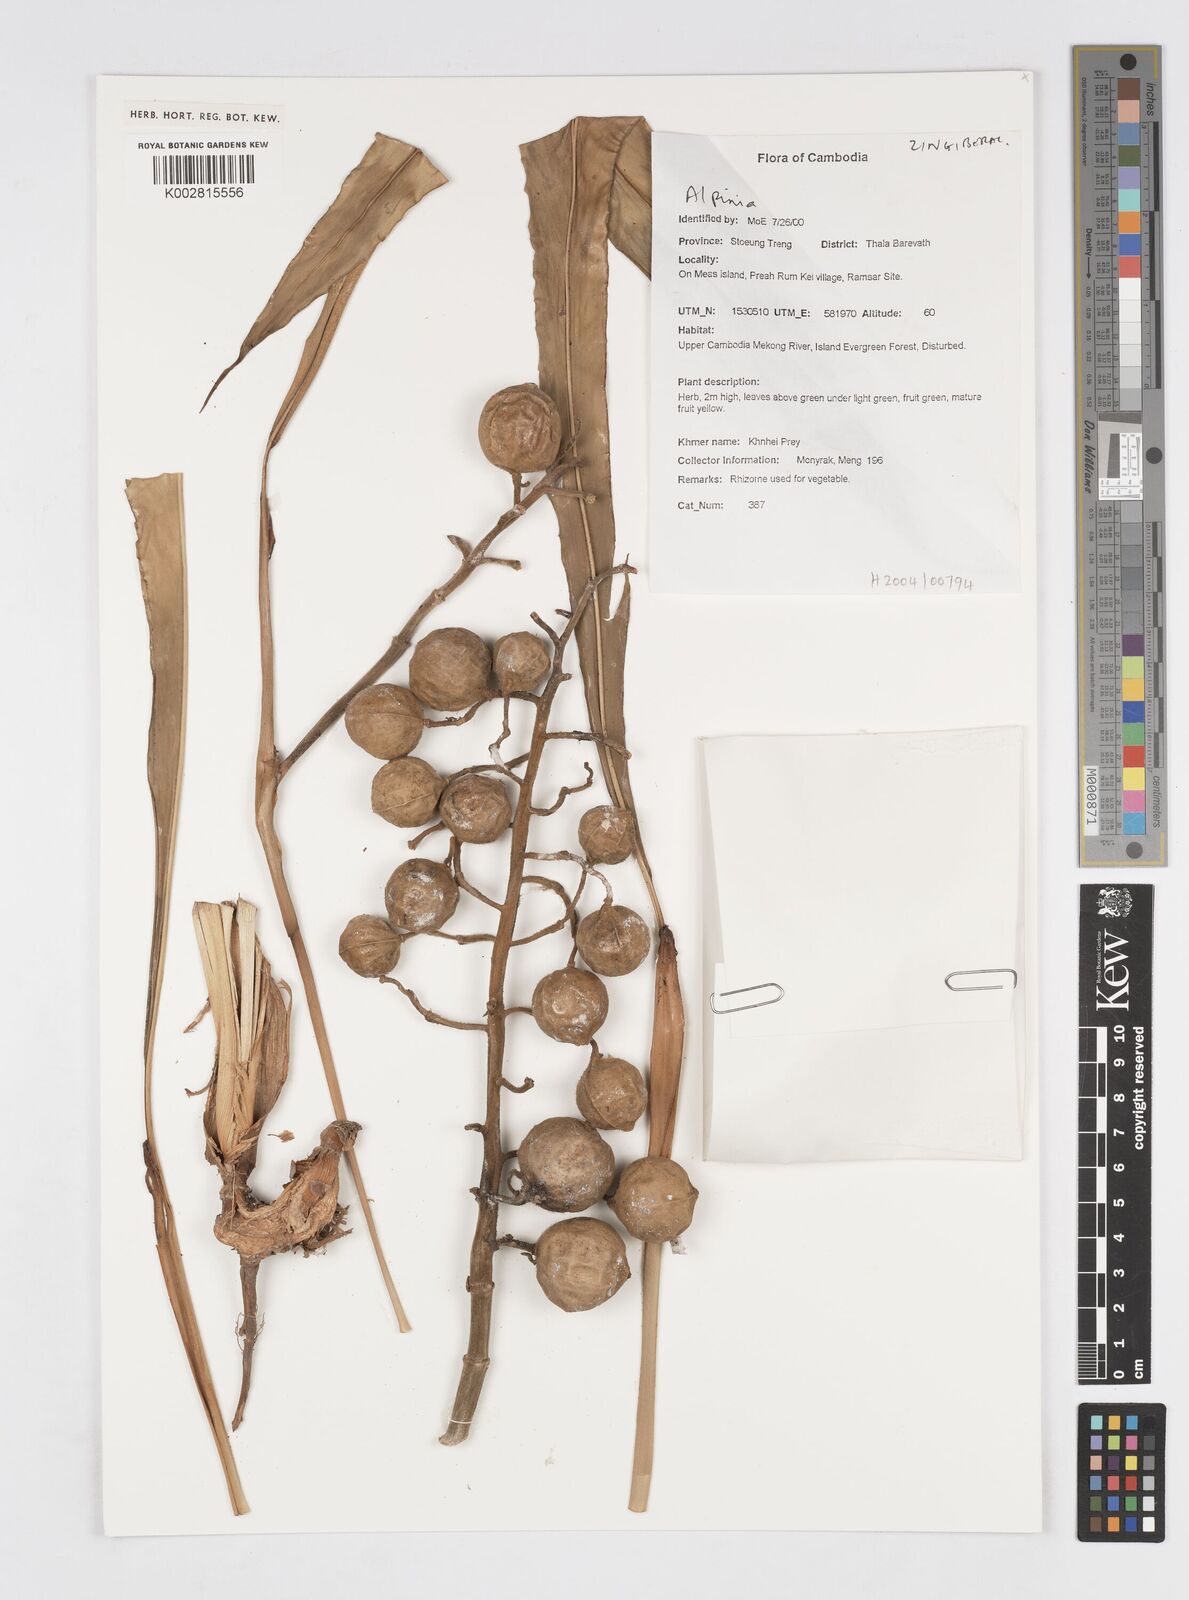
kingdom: Plantae
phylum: Tracheophyta
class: Liliopsida
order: Zingiberales
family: Zingiberaceae
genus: Alpinia
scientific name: Alpinia
